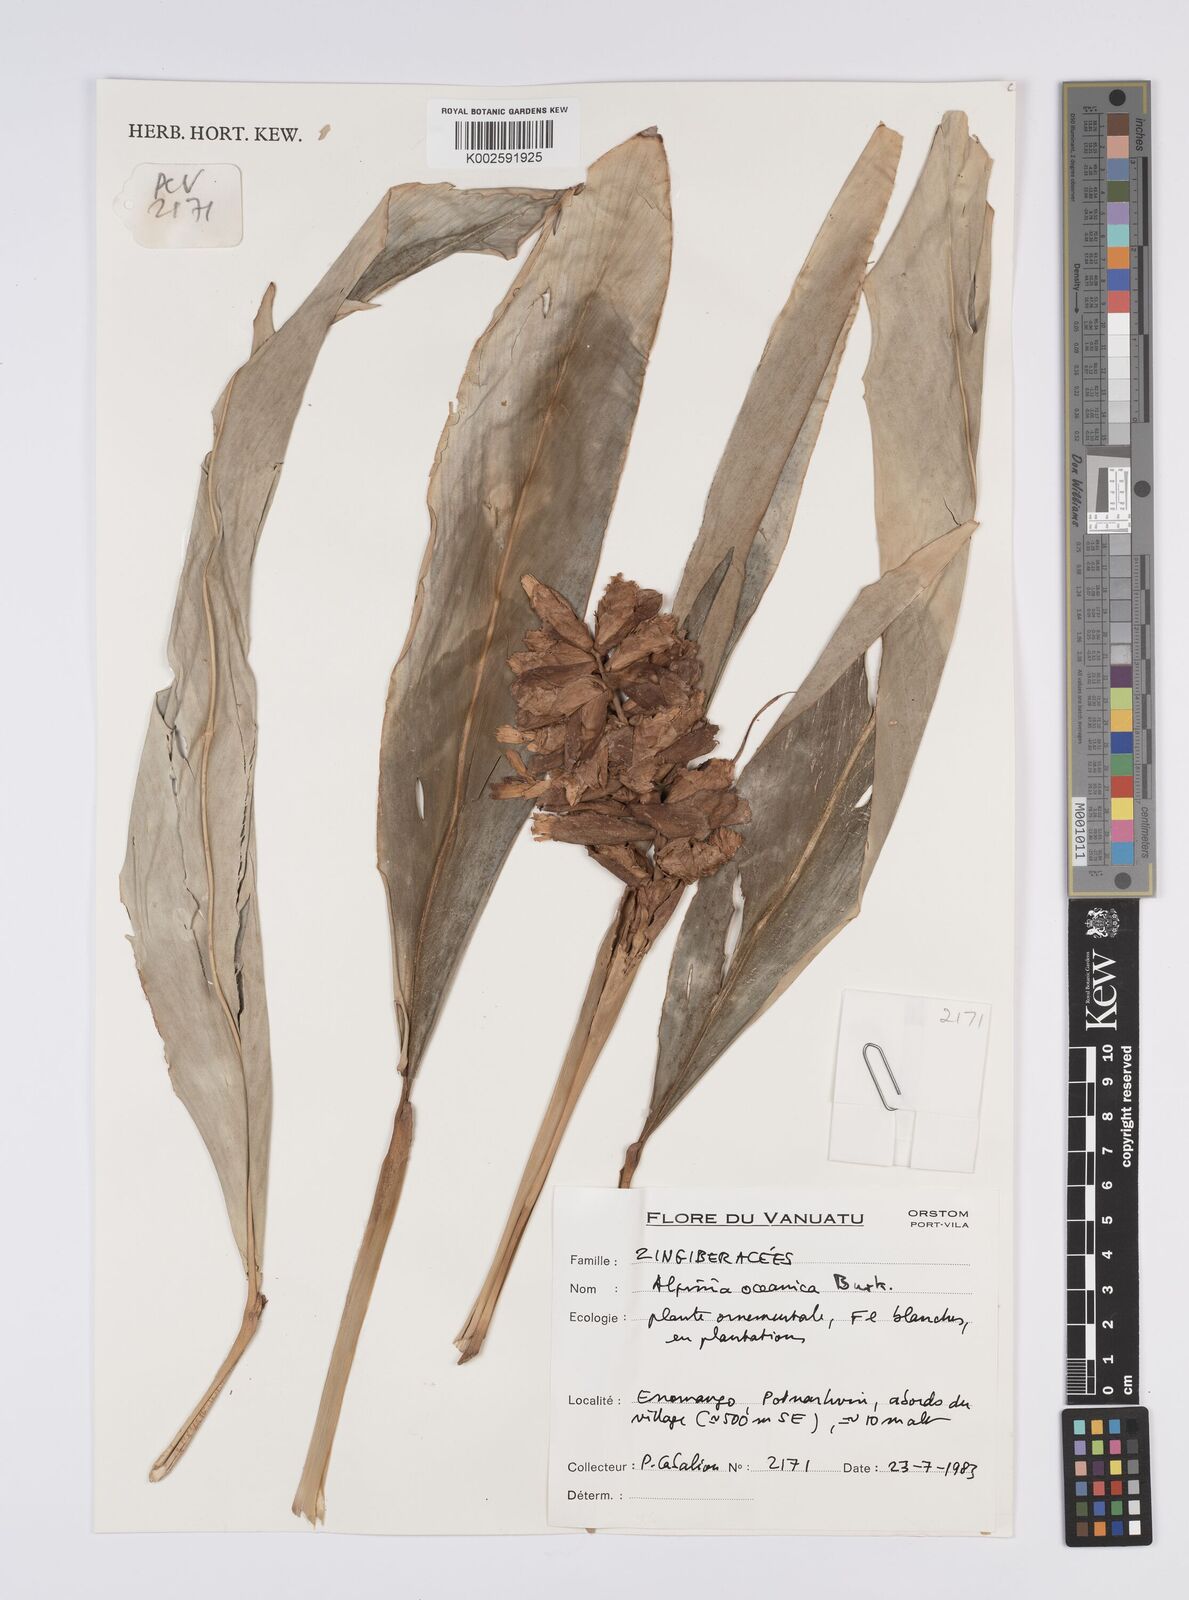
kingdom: Plantae
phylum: Tracheophyta
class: Liliopsida
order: Zingiberales
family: Zingiberaceae
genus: Alpinia
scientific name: Alpinia oceanica
